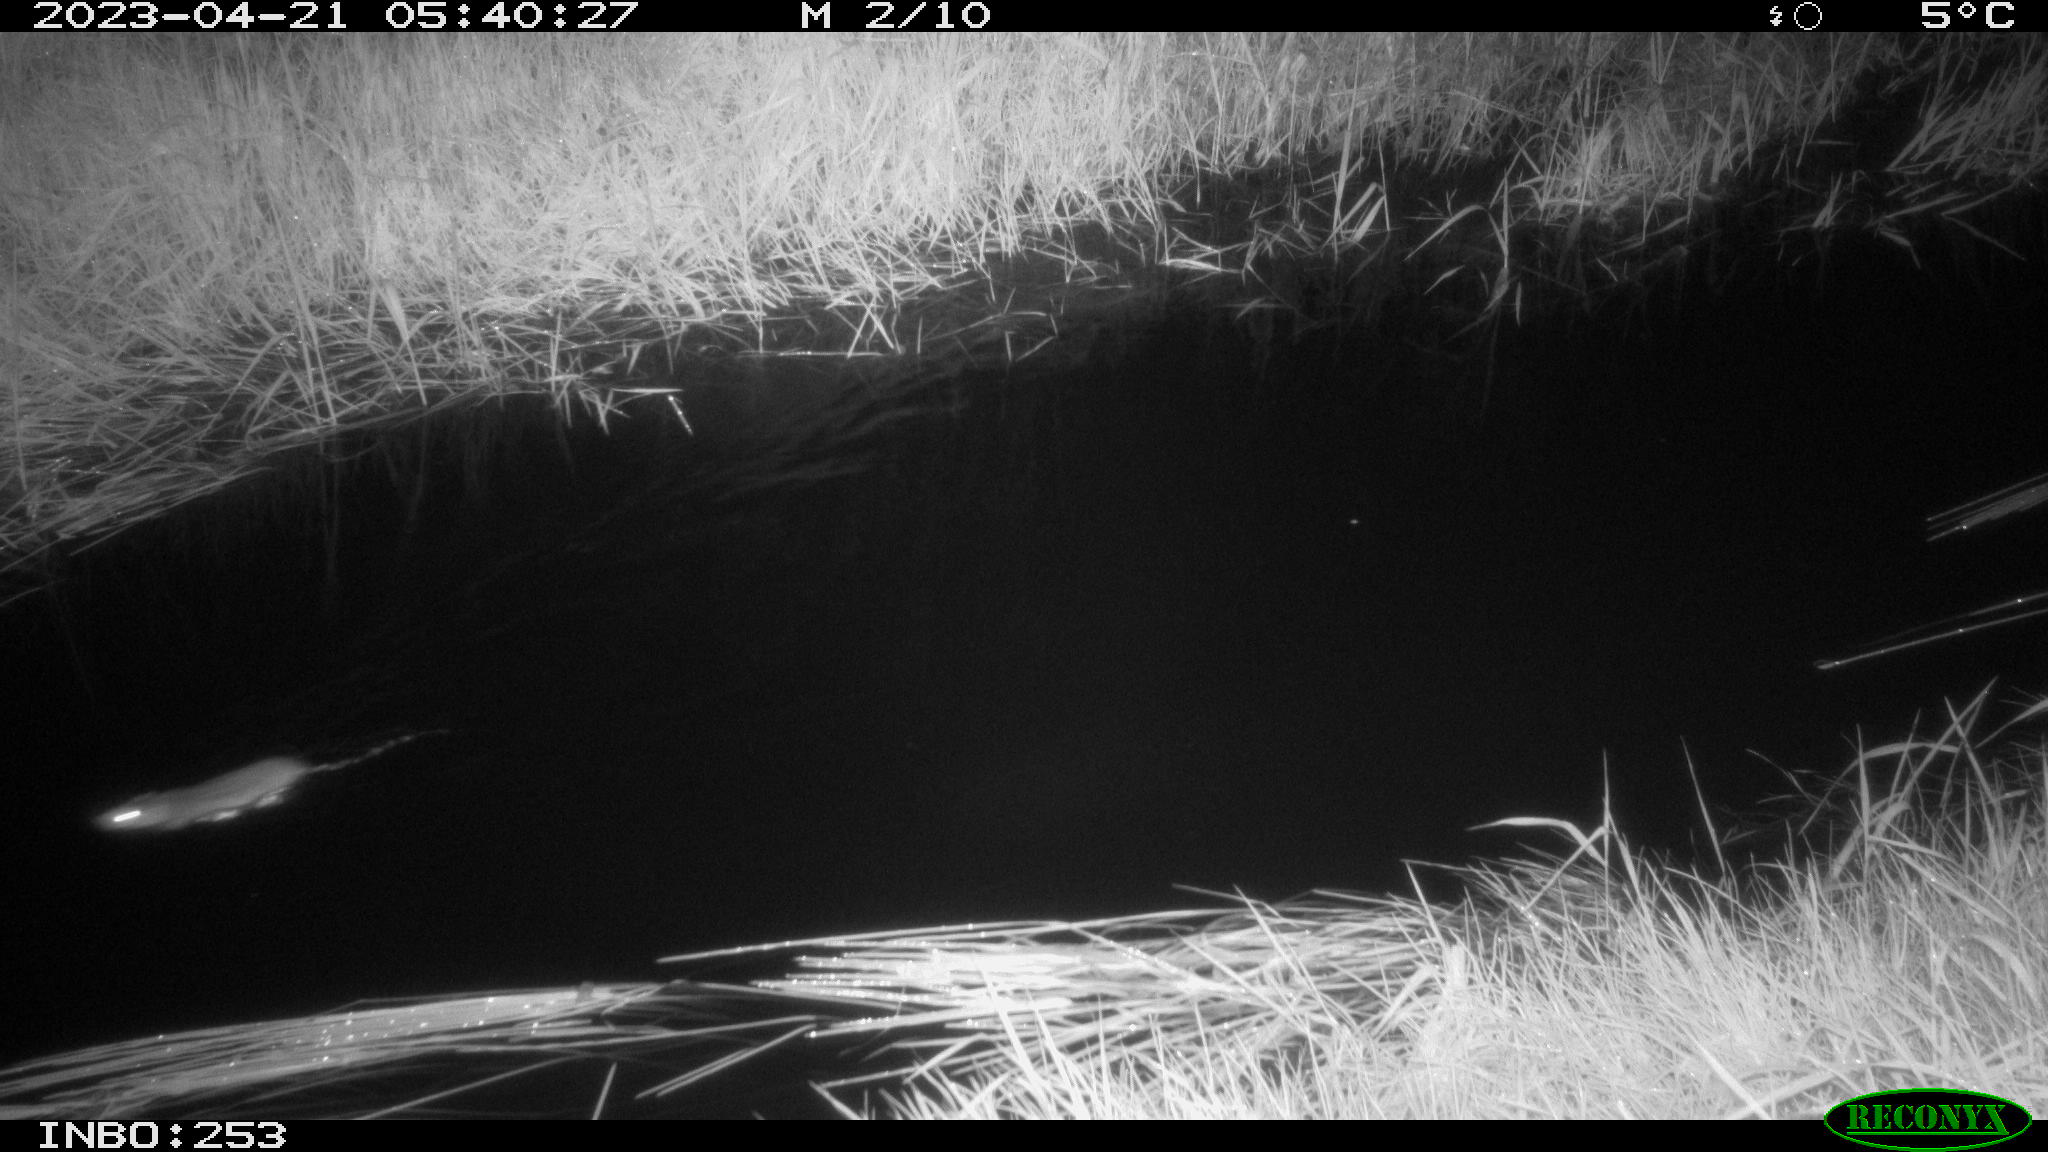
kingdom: Animalia
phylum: Chordata
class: Mammalia
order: Rodentia
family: Muridae
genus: Rattus
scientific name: Rattus norvegicus
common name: Brown rat
